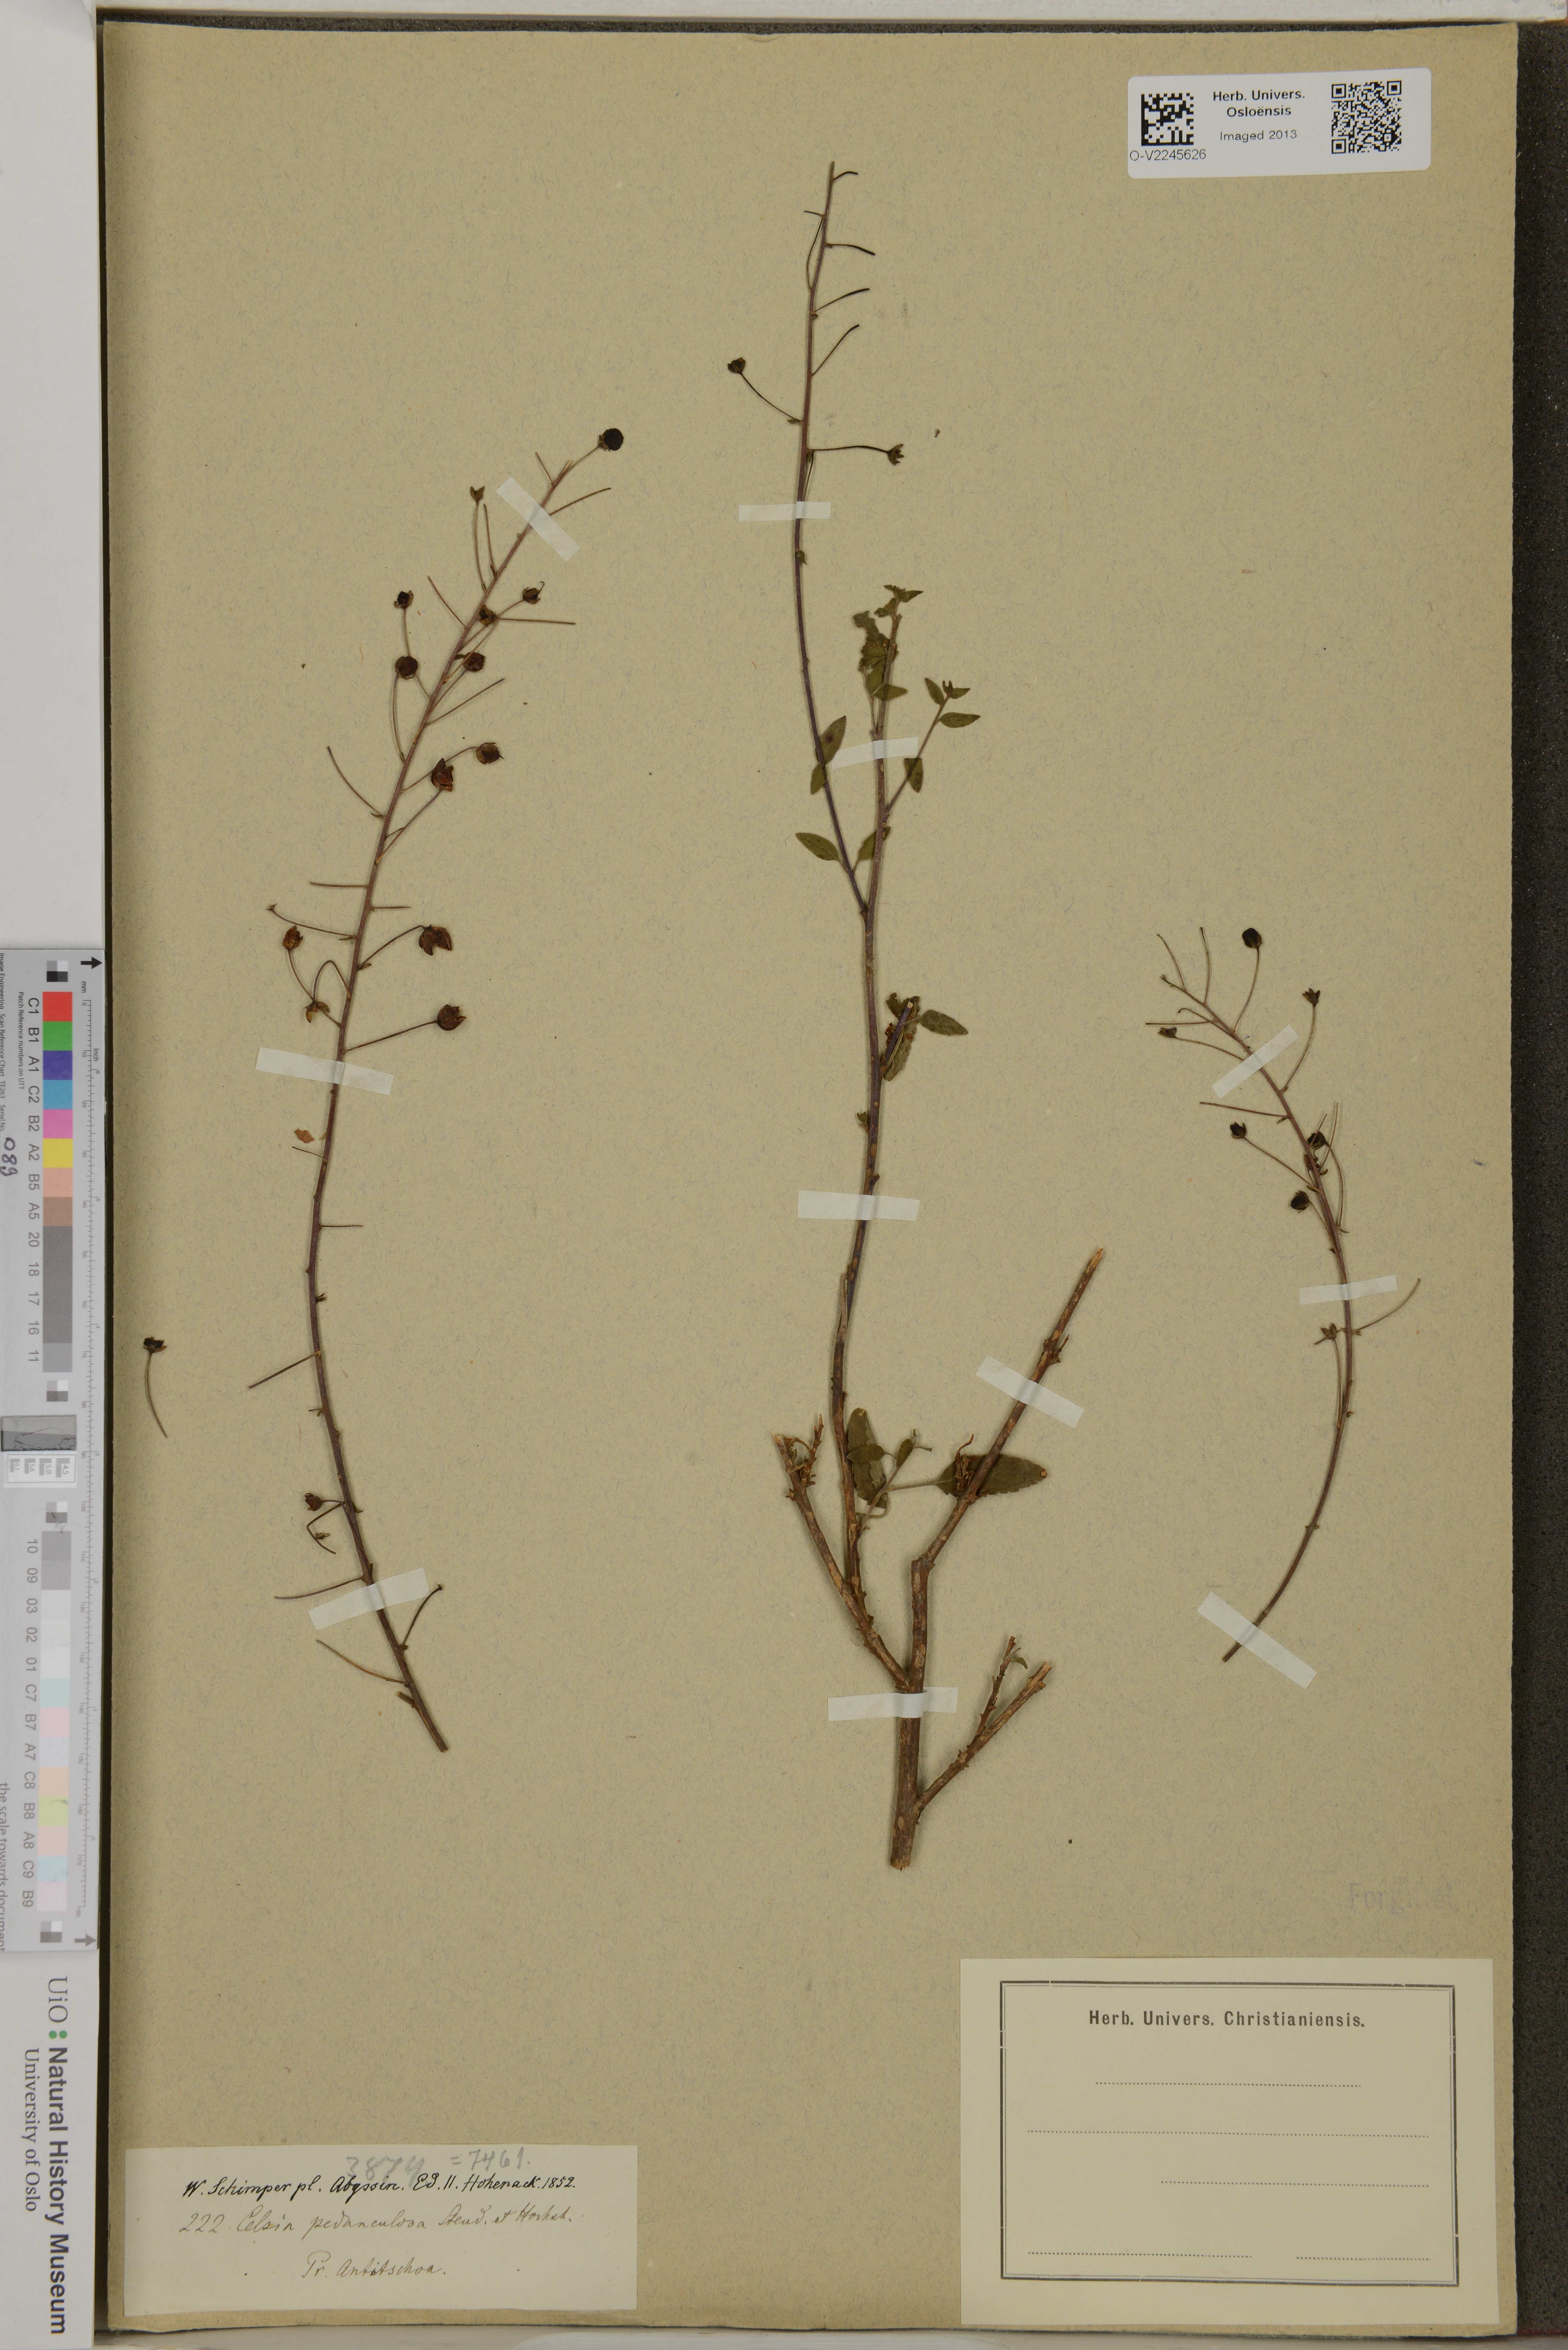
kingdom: Plantae
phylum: Tracheophyta
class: Magnoliopsida
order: Lamiales
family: Scrophulariaceae
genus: Verbascum
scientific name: Verbascum pedunculosum
